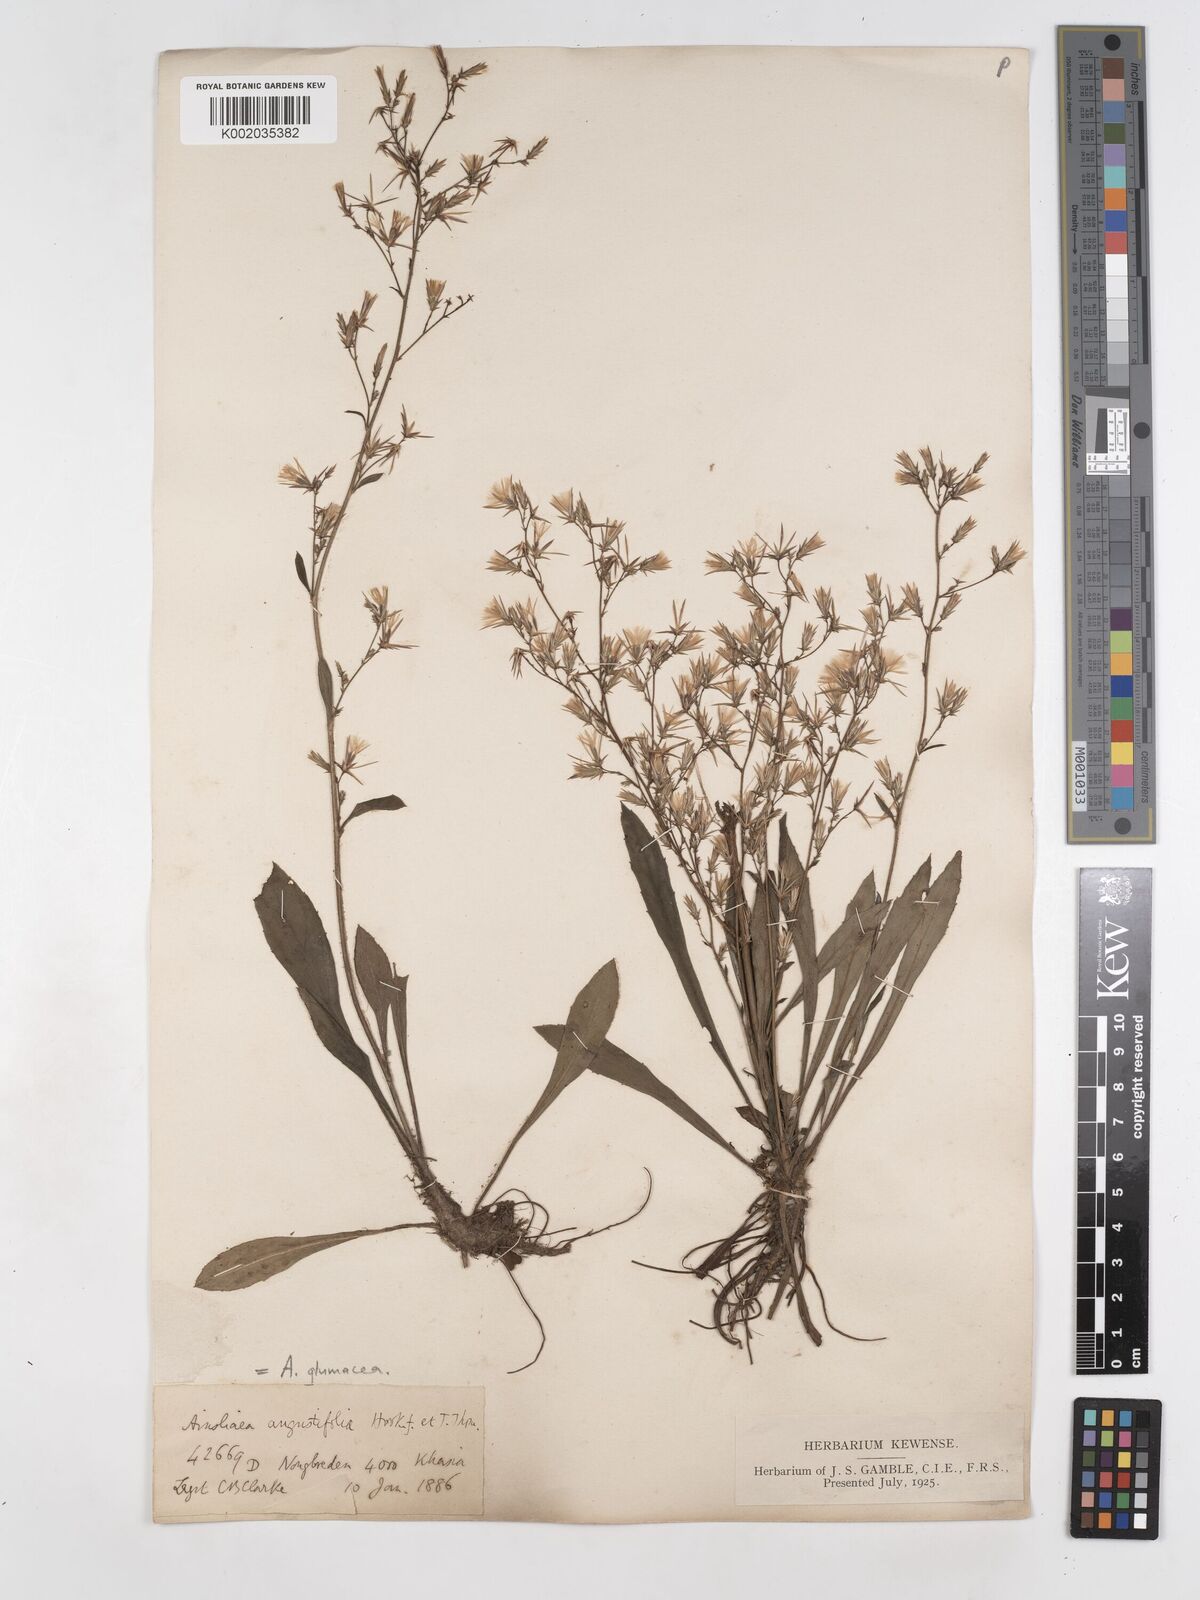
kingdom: Plantae
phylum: Tracheophyta
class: Magnoliopsida
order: Asterales
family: Asteraceae
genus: Ainsliaea
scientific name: Ainsliaea angustifolia
